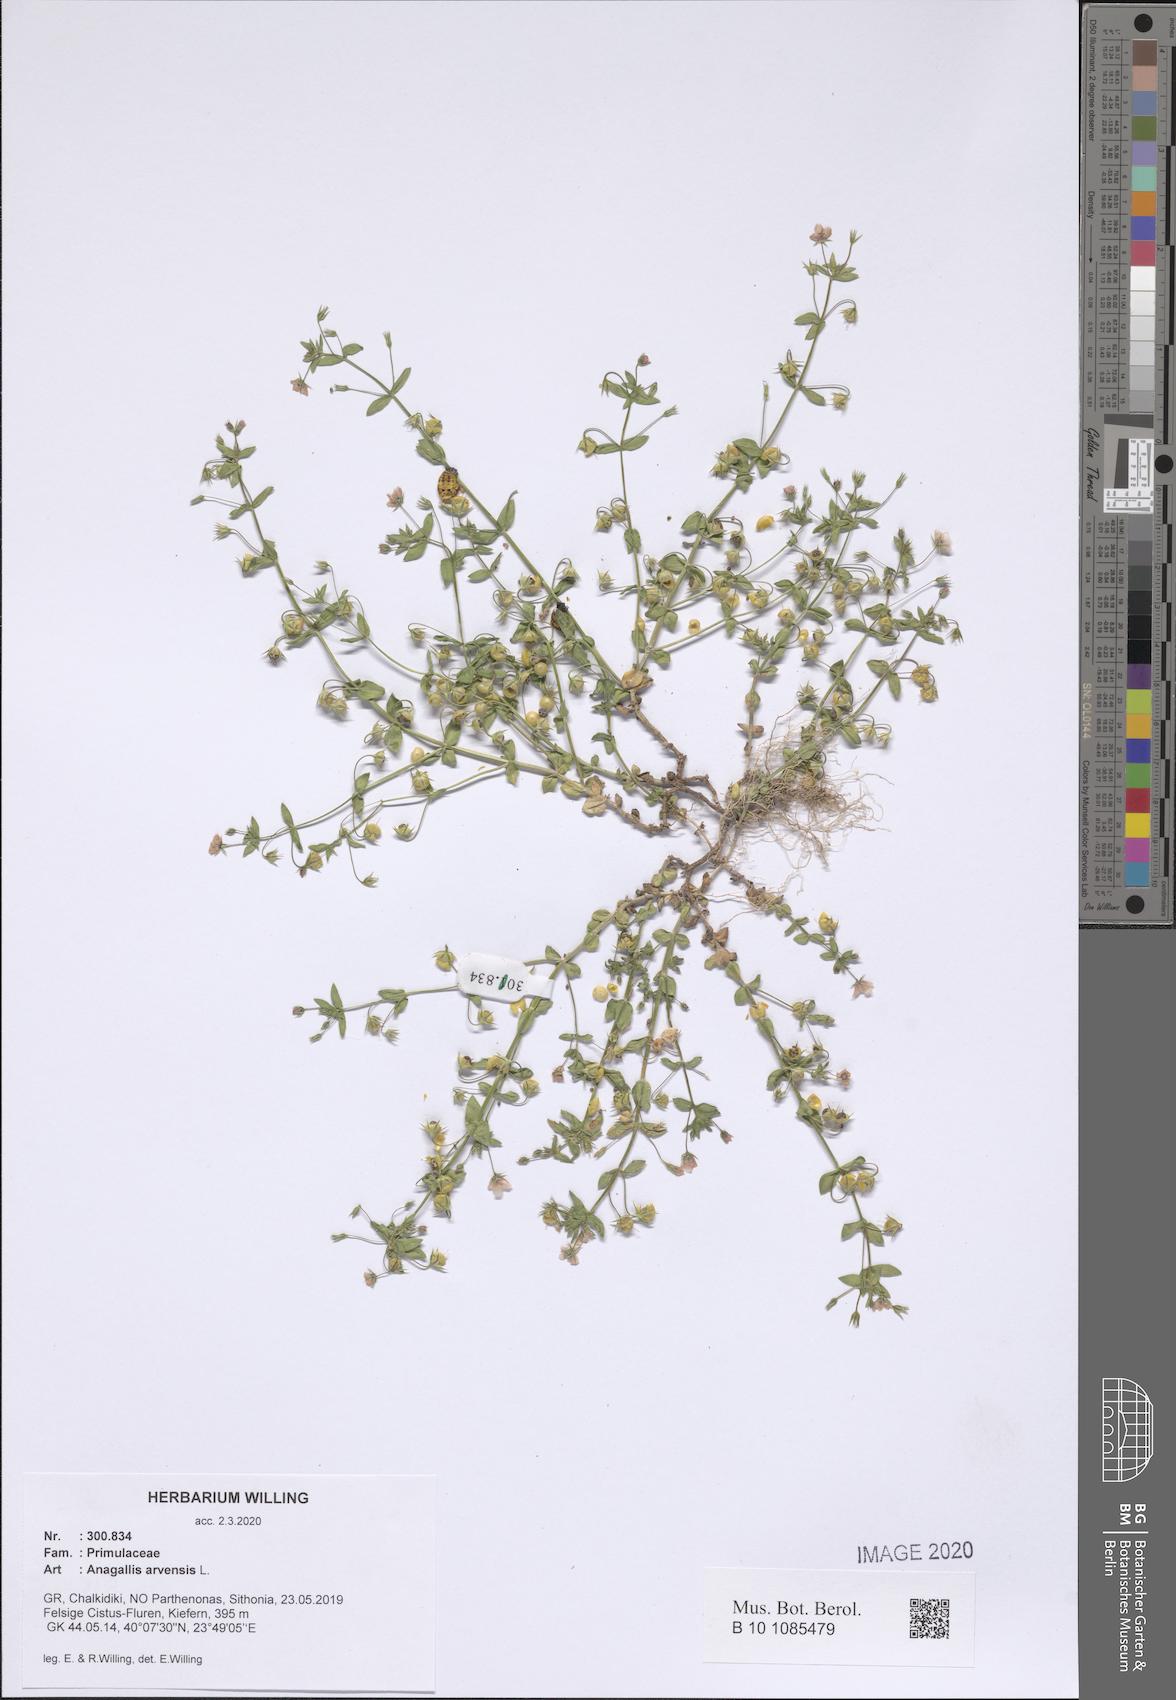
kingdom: Plantae
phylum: Tracheophyta
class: Magnoliopsida
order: Ericales
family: Primulaceae
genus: Lysimachia
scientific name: Lysimachia arvensis
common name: Scarlet pimpernel
